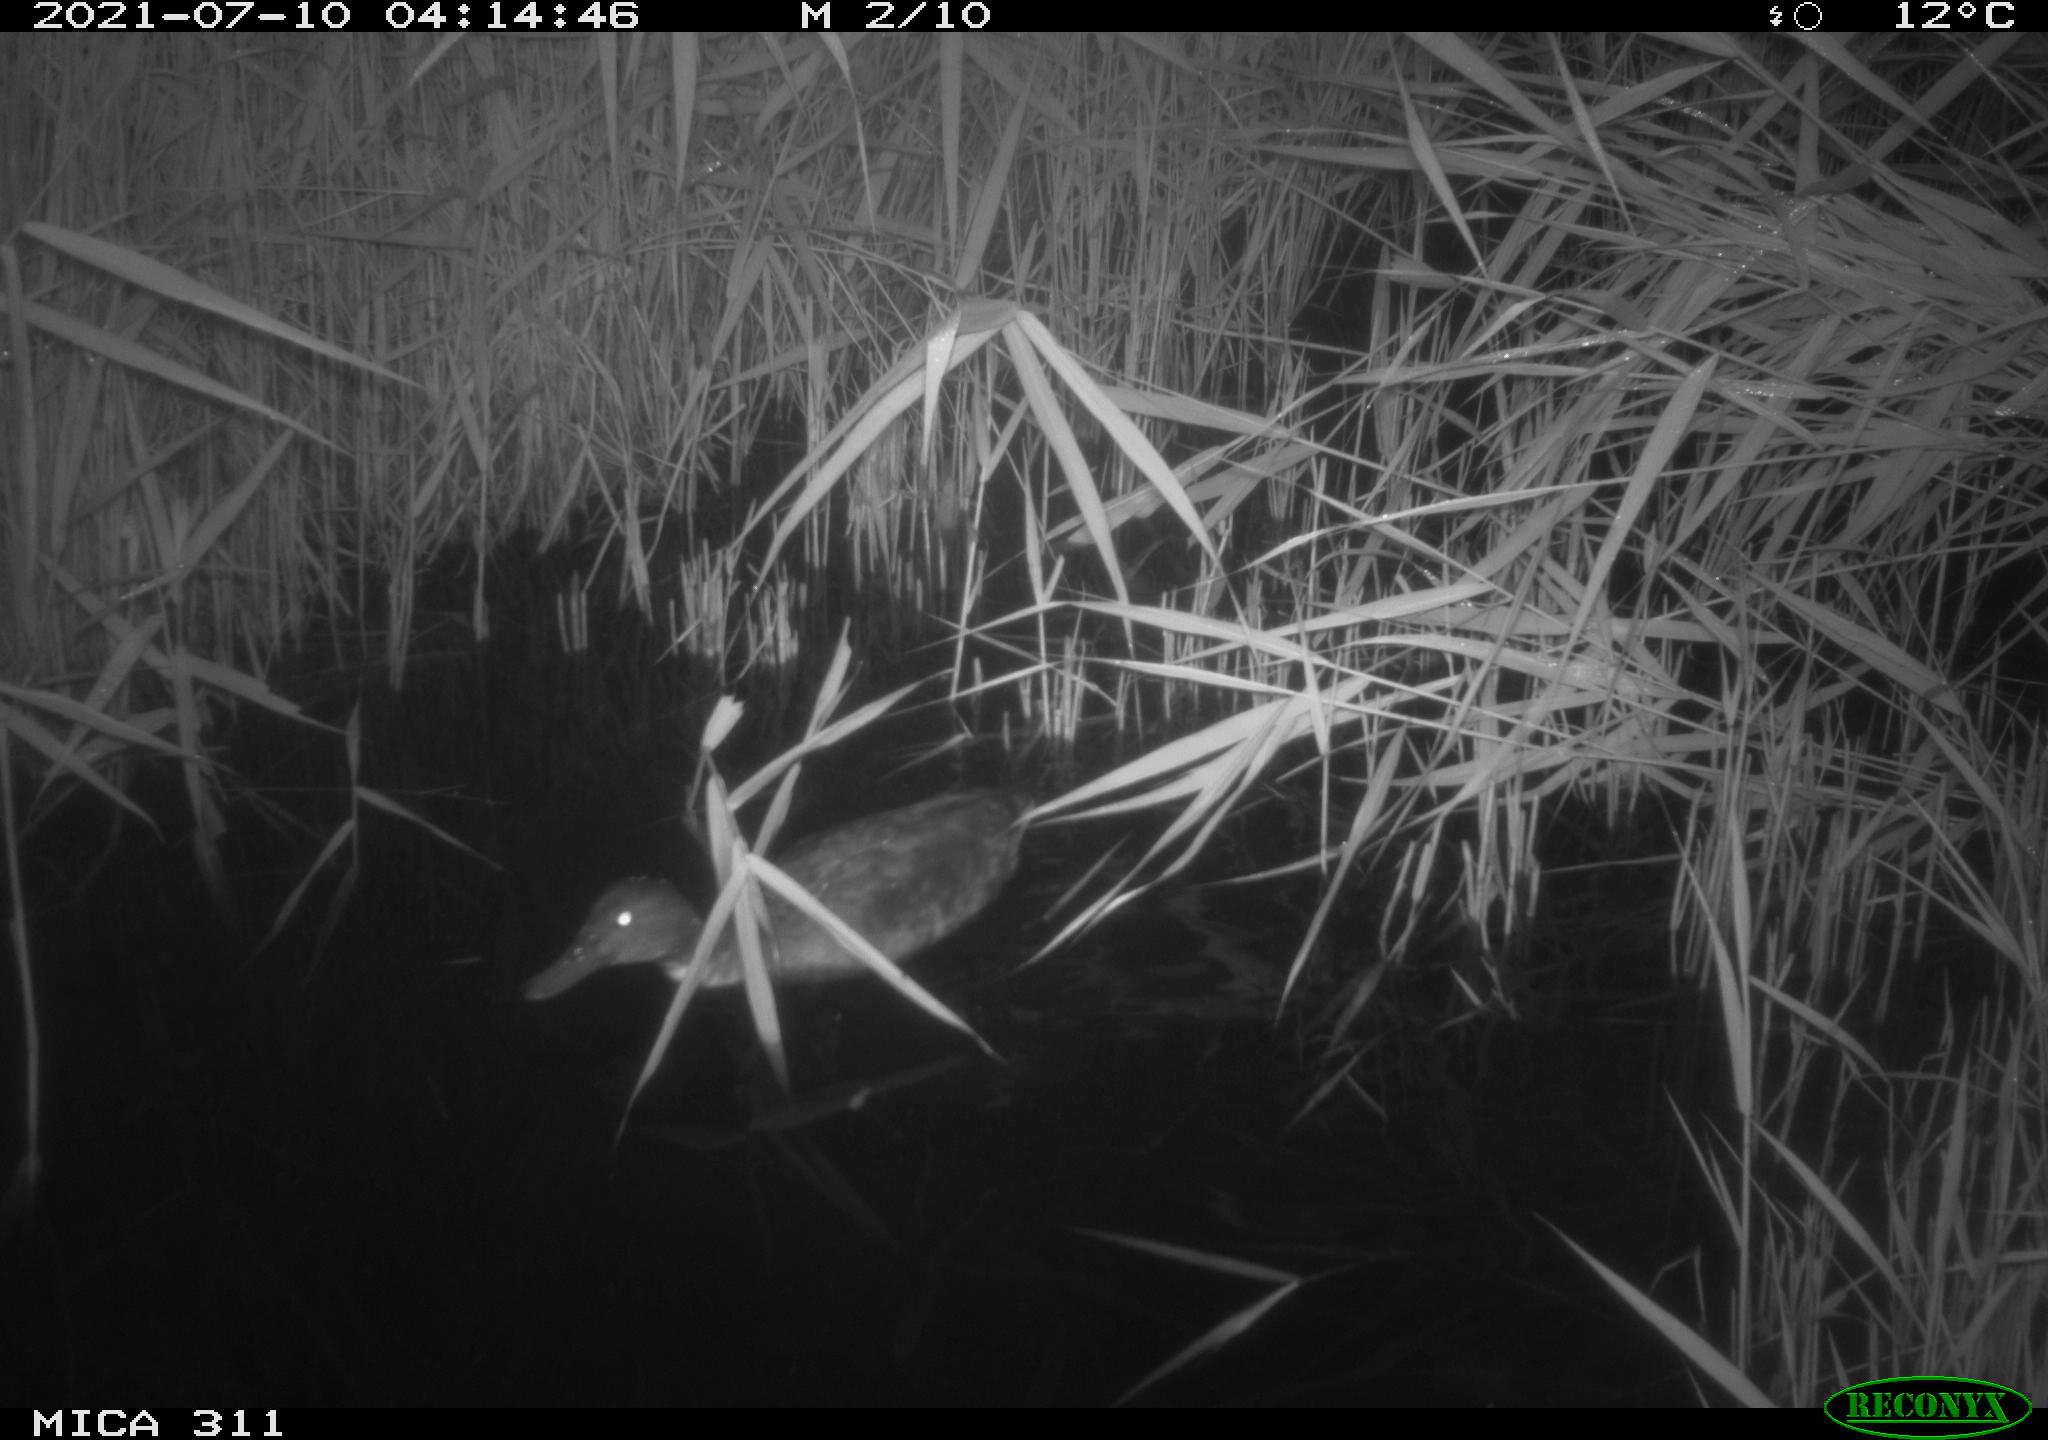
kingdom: Animalia
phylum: Chordata
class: Aves
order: Anseriformes
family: Anatidae
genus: Anas
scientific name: Anas
